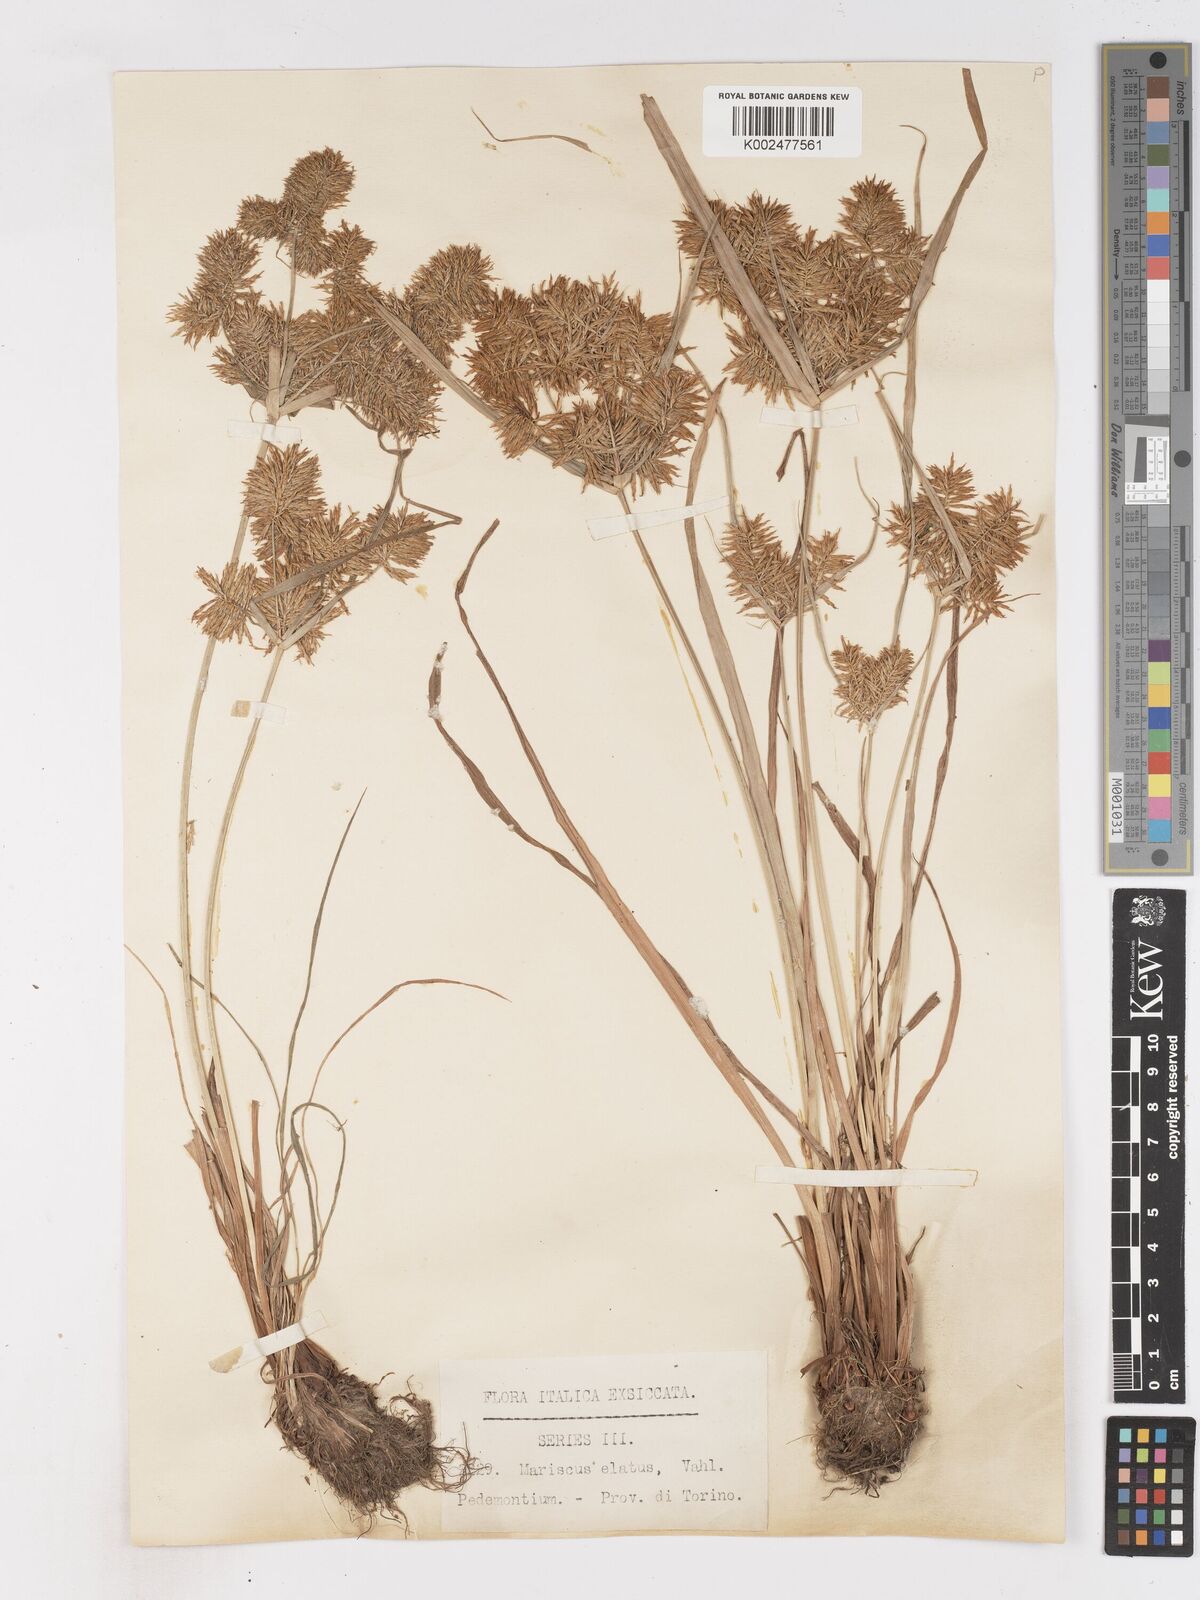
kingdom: Plantae
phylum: Tracheophyta
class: Liliopsida
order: Poales
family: Cyperaceae
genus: Cyperus
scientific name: Cyperus hemisphaericus
